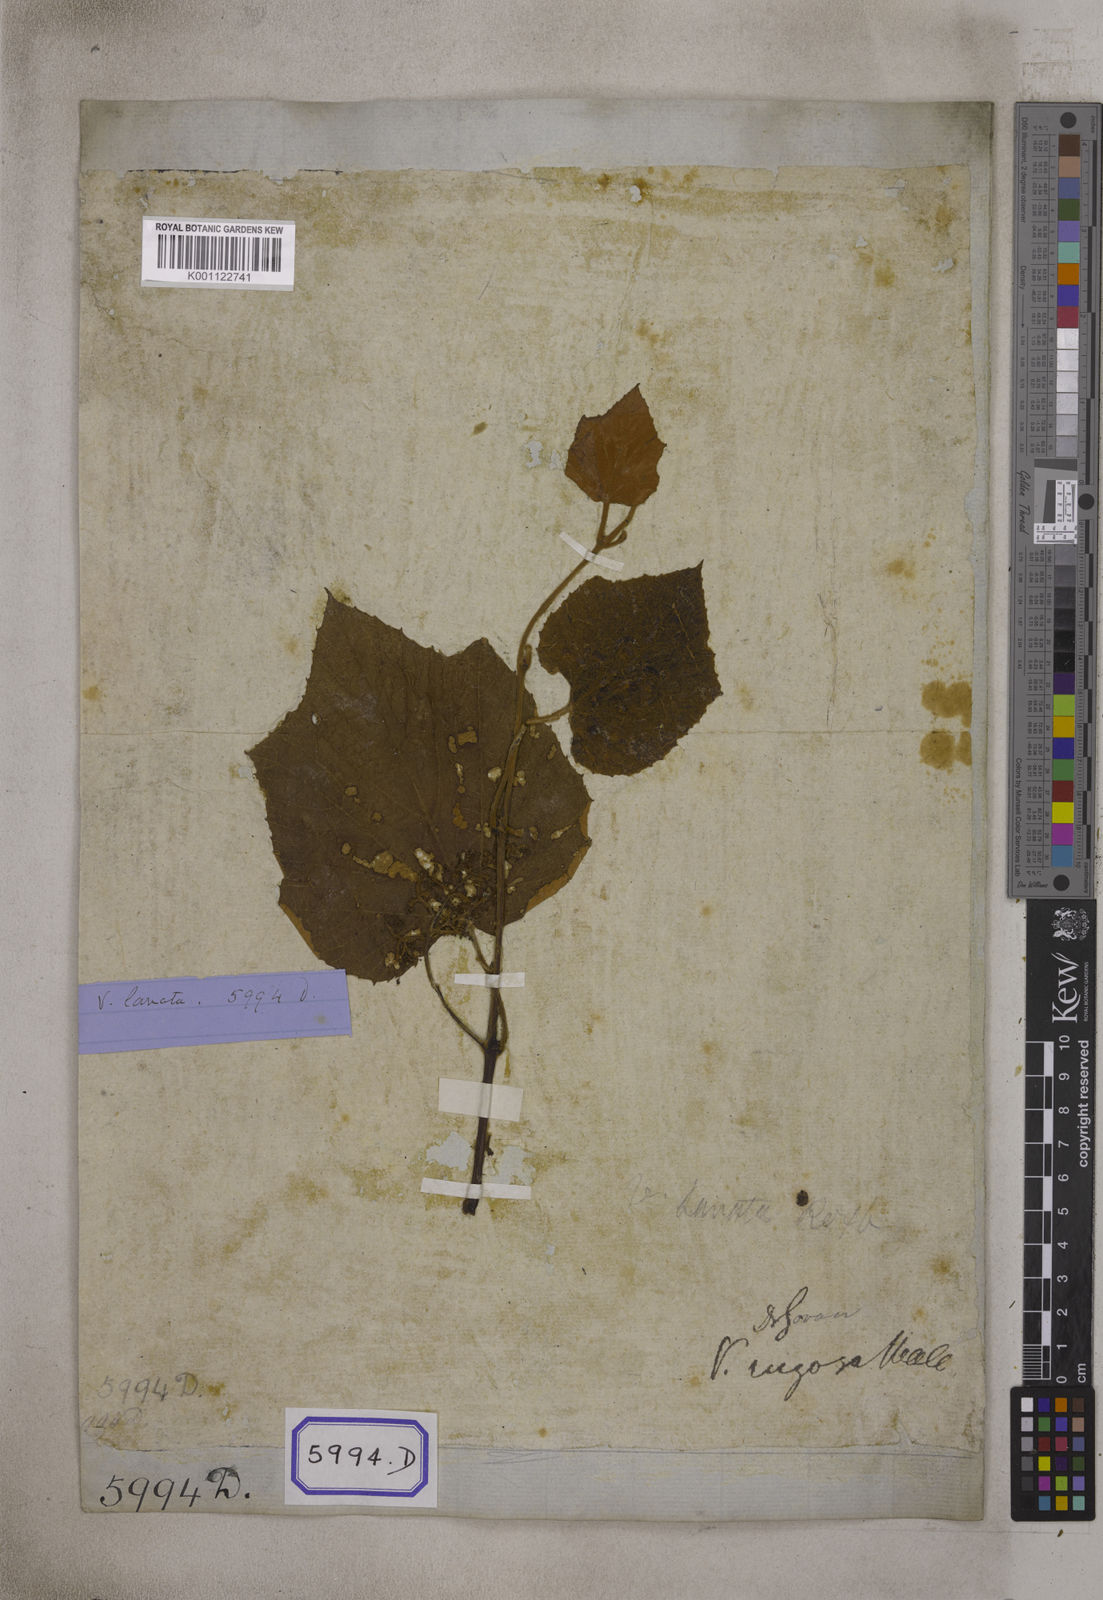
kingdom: Plantae
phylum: Tracheophyta
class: Magnoliopsida
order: Vitales
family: Vitaceae
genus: Ampelocissus
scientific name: Ampelocissus rugosa
